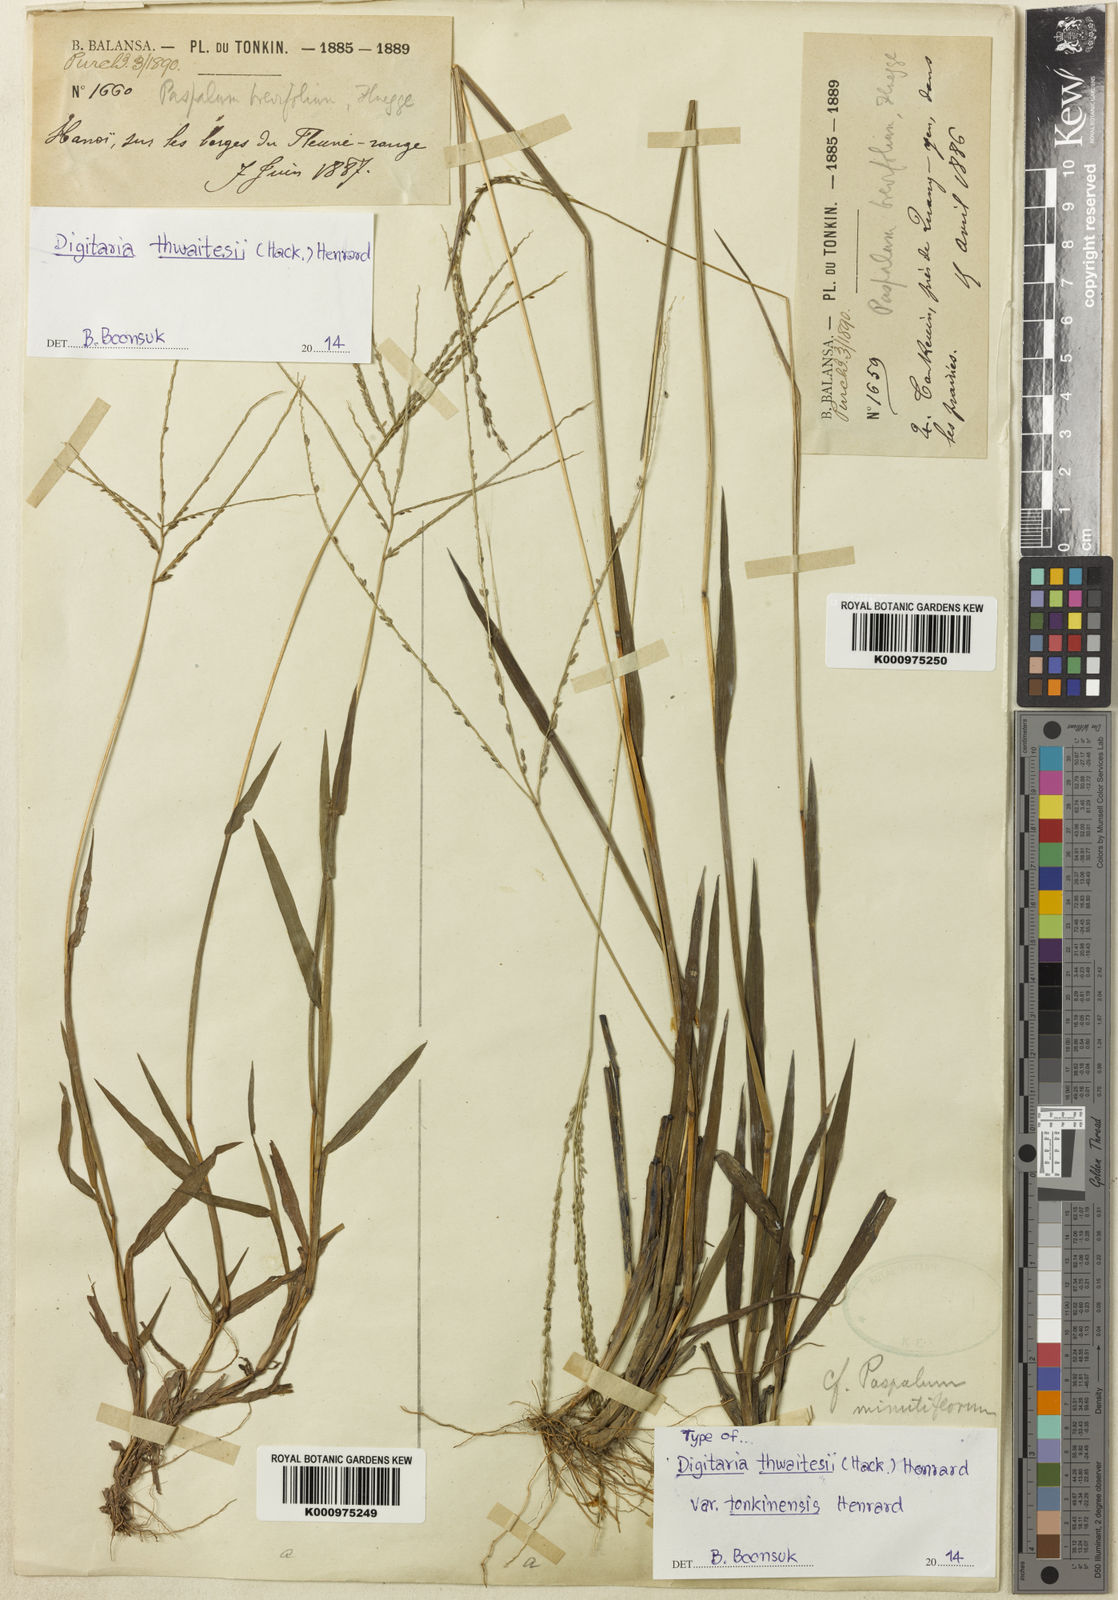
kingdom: Plantae
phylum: Tracheophyta
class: Liliopsida
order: Poales
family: Poaceae
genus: Digitaria
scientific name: Digitaria violascens
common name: Violet crabgrass
